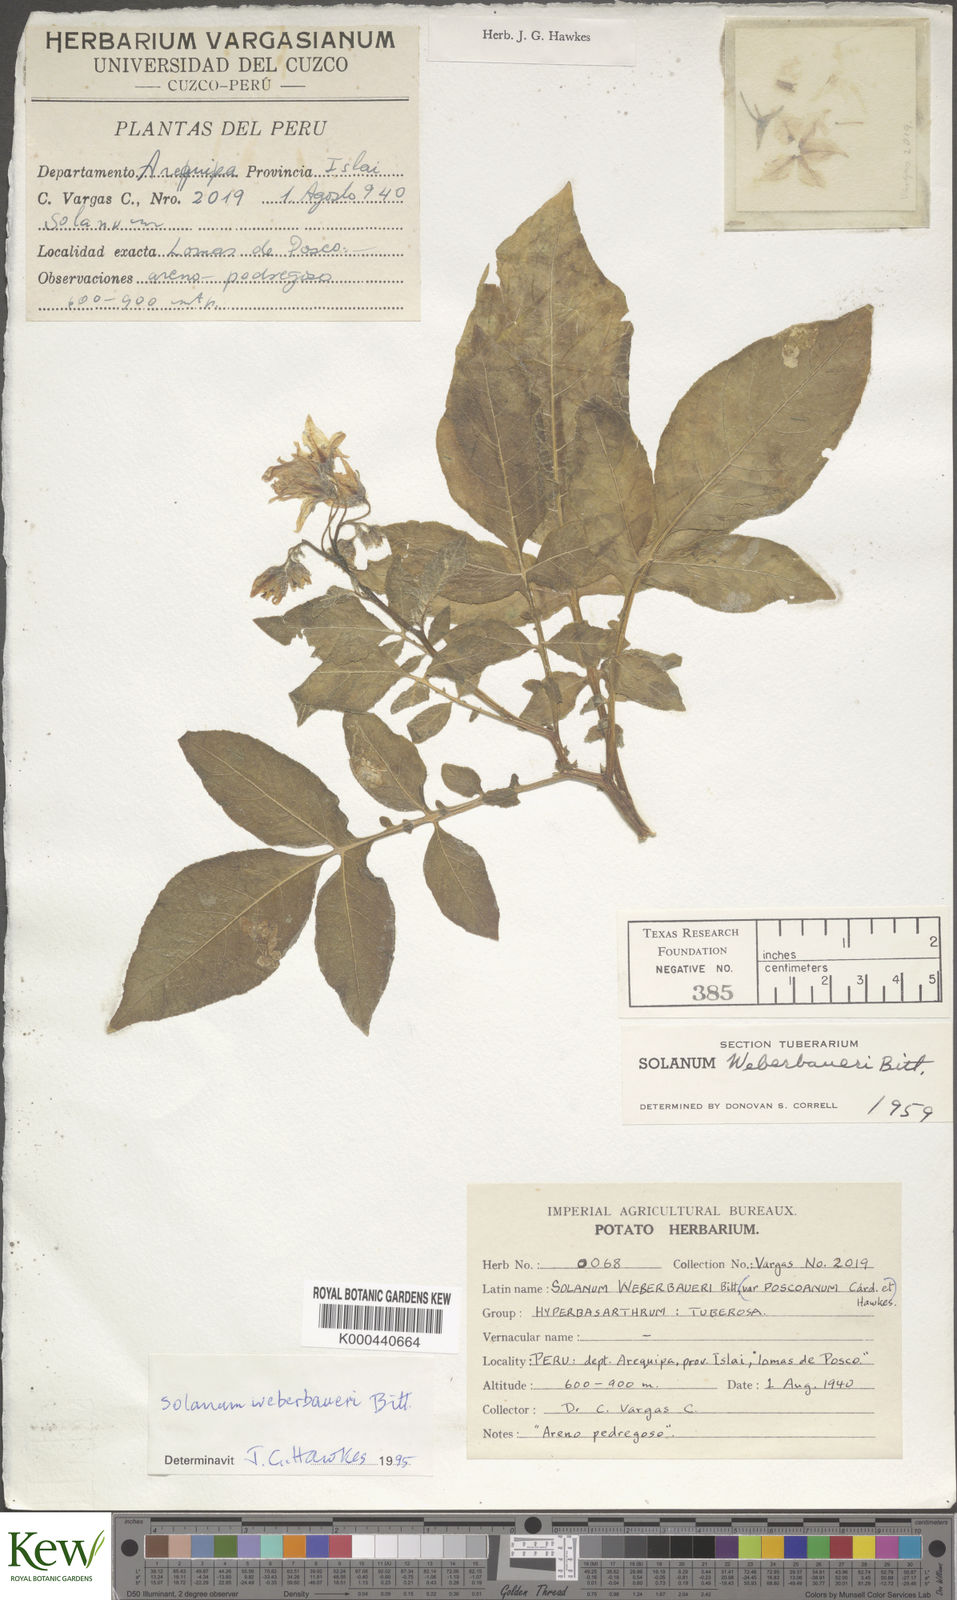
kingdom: Plantae
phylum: Tracheophyta
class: Magnoliopsida
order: Solanales
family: Solanaceae
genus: Solanum
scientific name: Solanum medians
